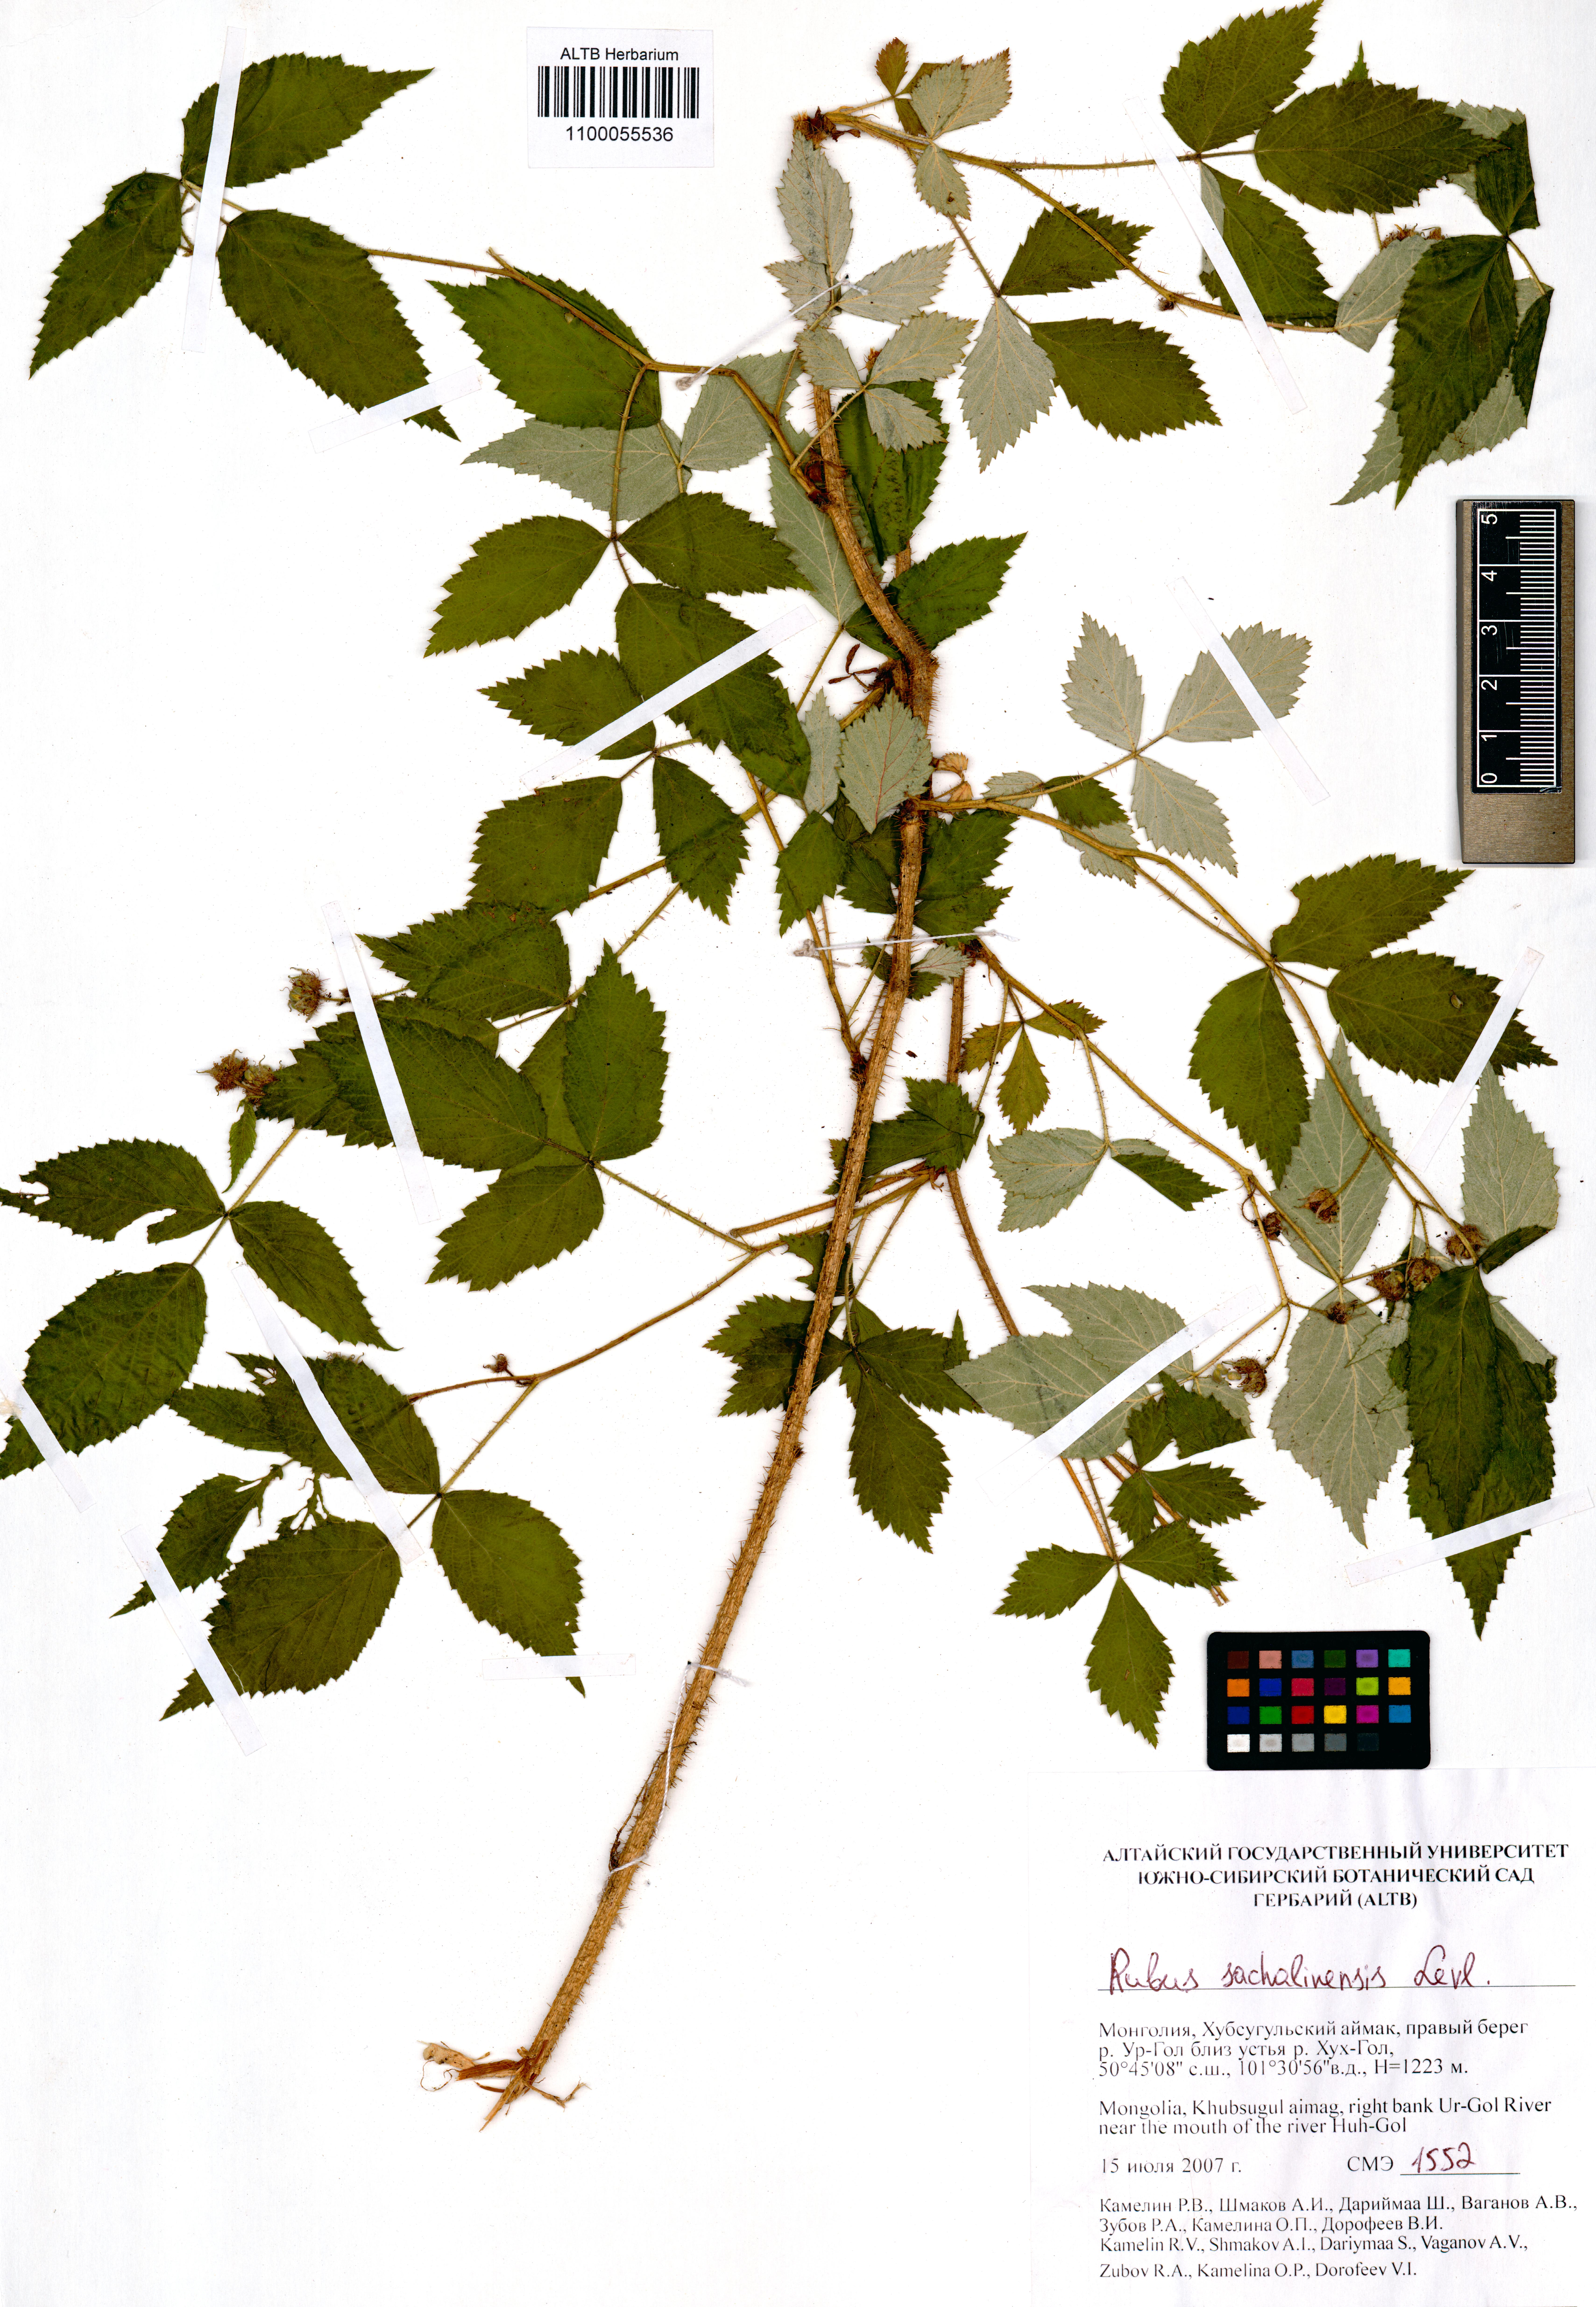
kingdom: Plantae
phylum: Tracheophyta
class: Magnoliopsida
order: Rosales
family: Rosaceae
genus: Rubus
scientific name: Rubus sachalinensis
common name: Red raspberry
